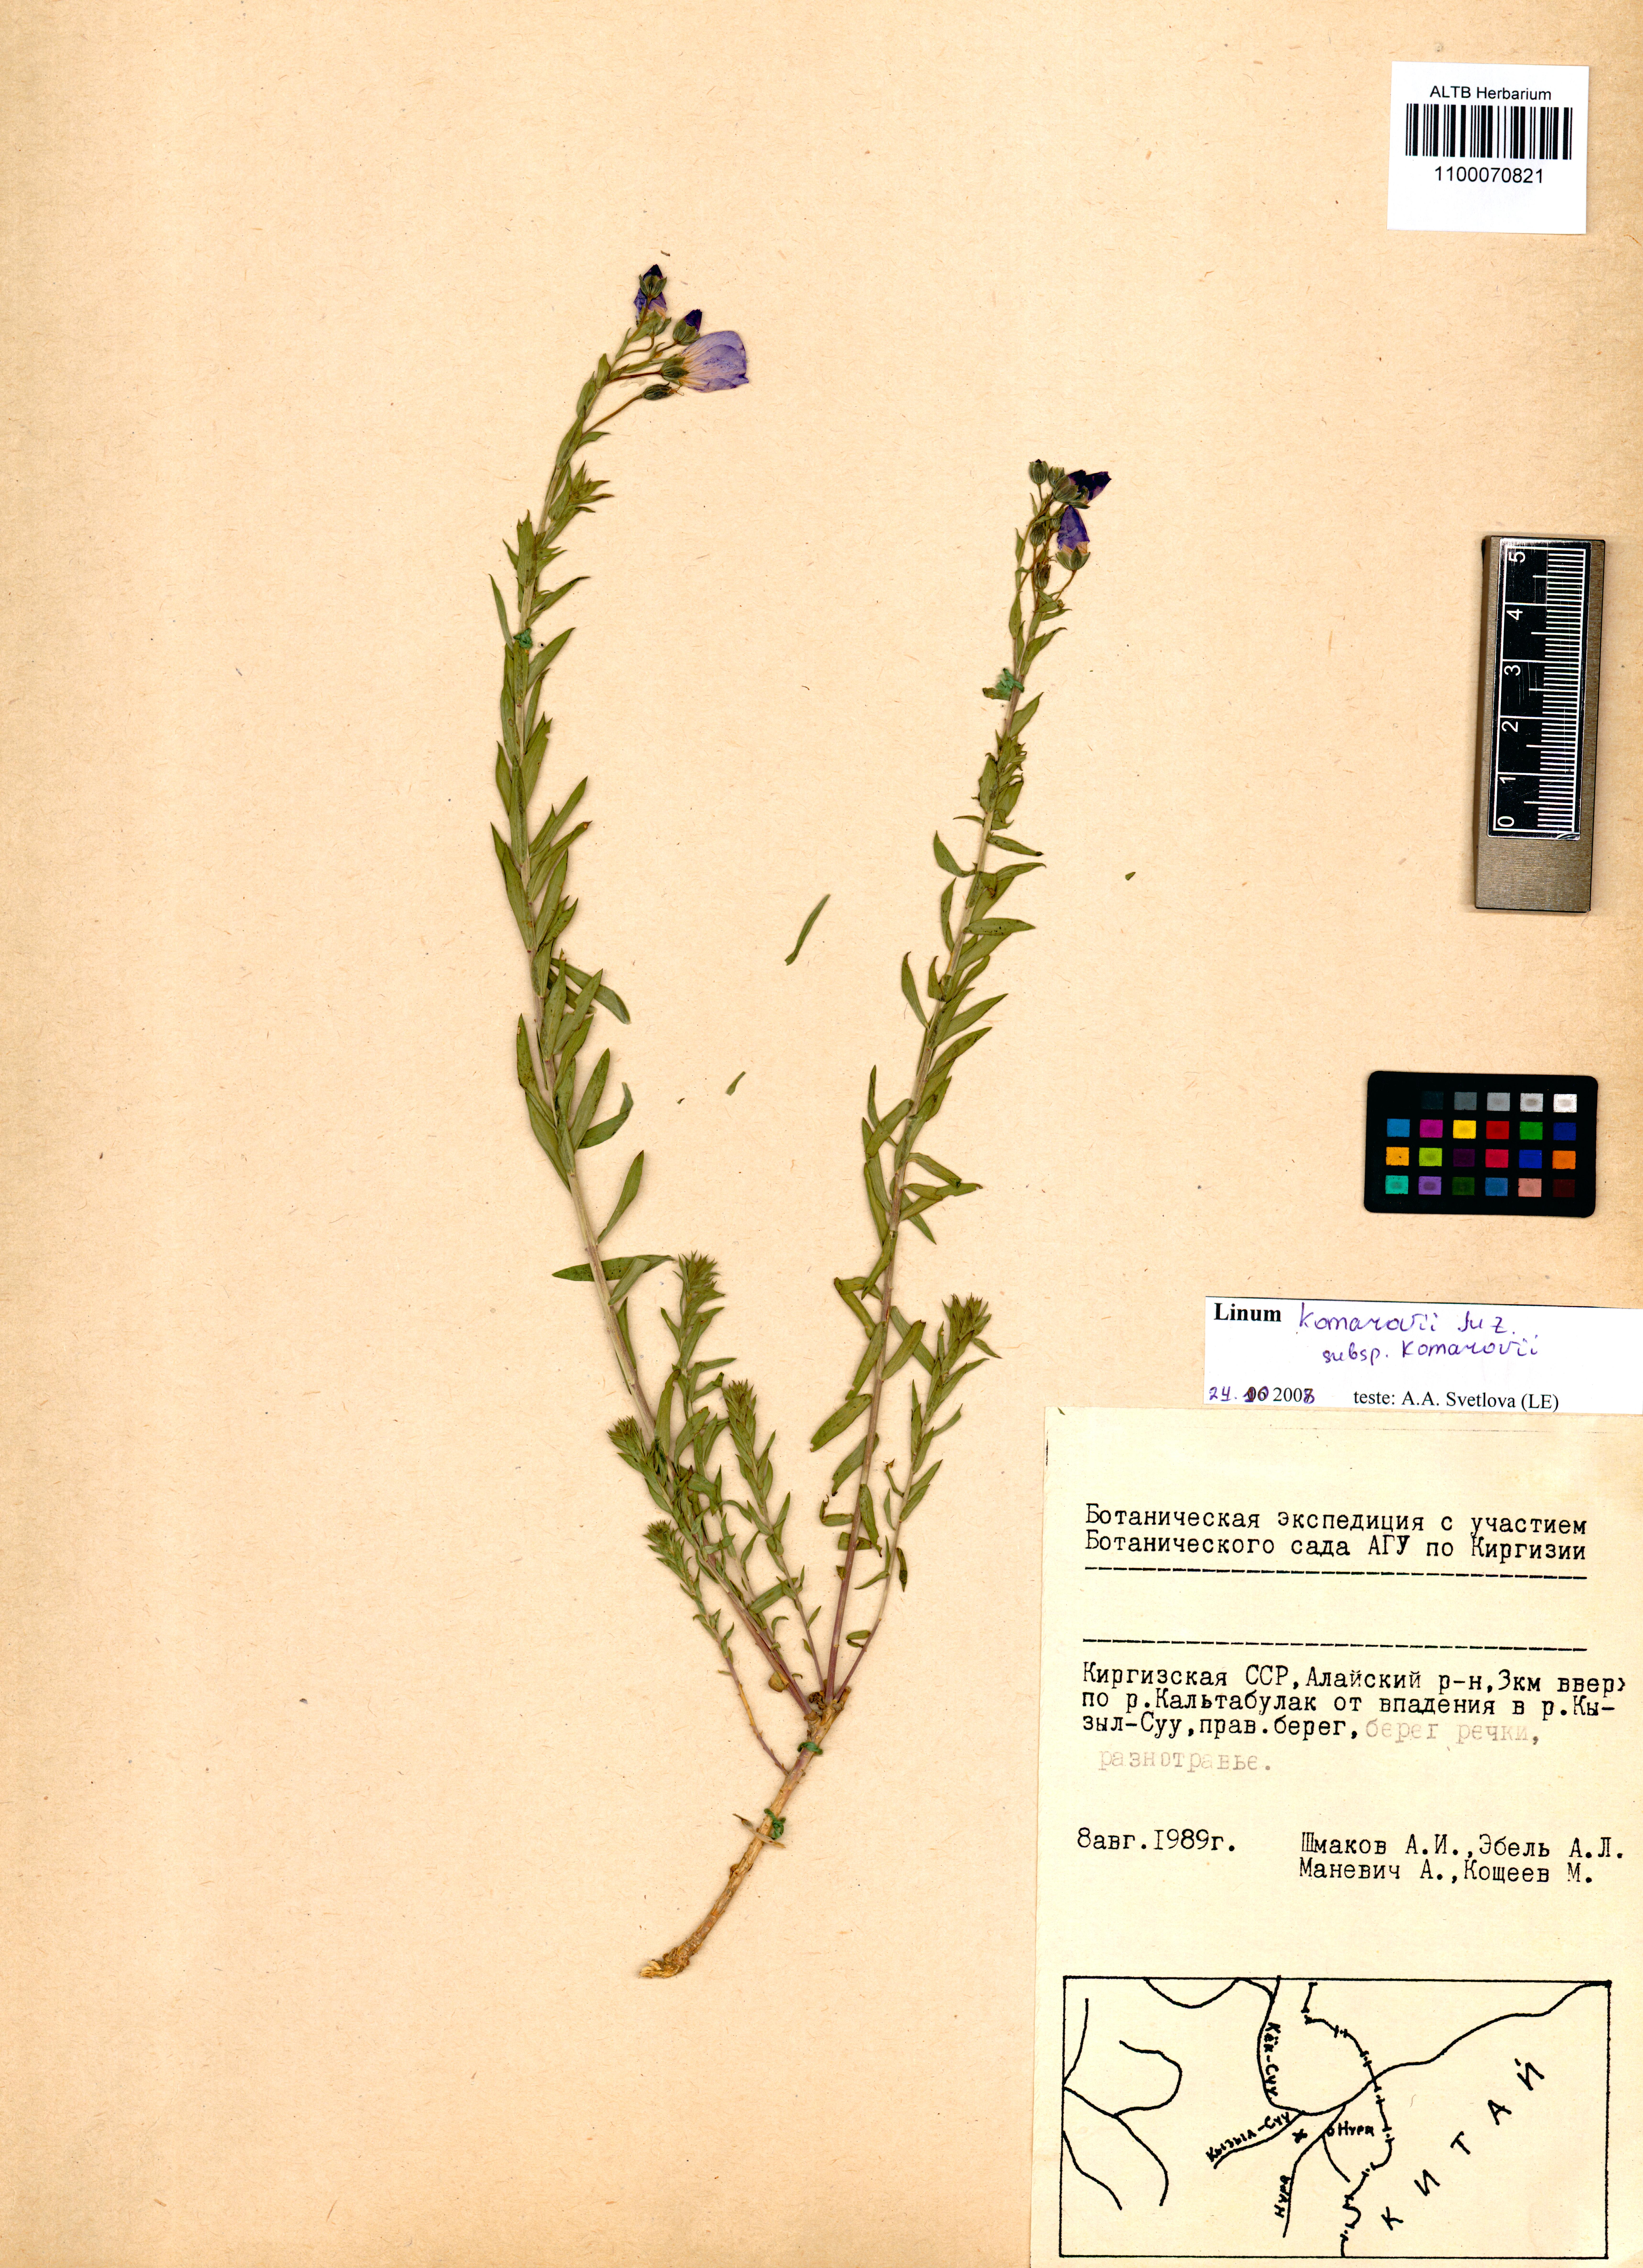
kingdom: Plantae
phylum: Tracheophyta
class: Magnoliopsida
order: Malpighiales
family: Linaceae
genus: Linum
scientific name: Linum komarovii
